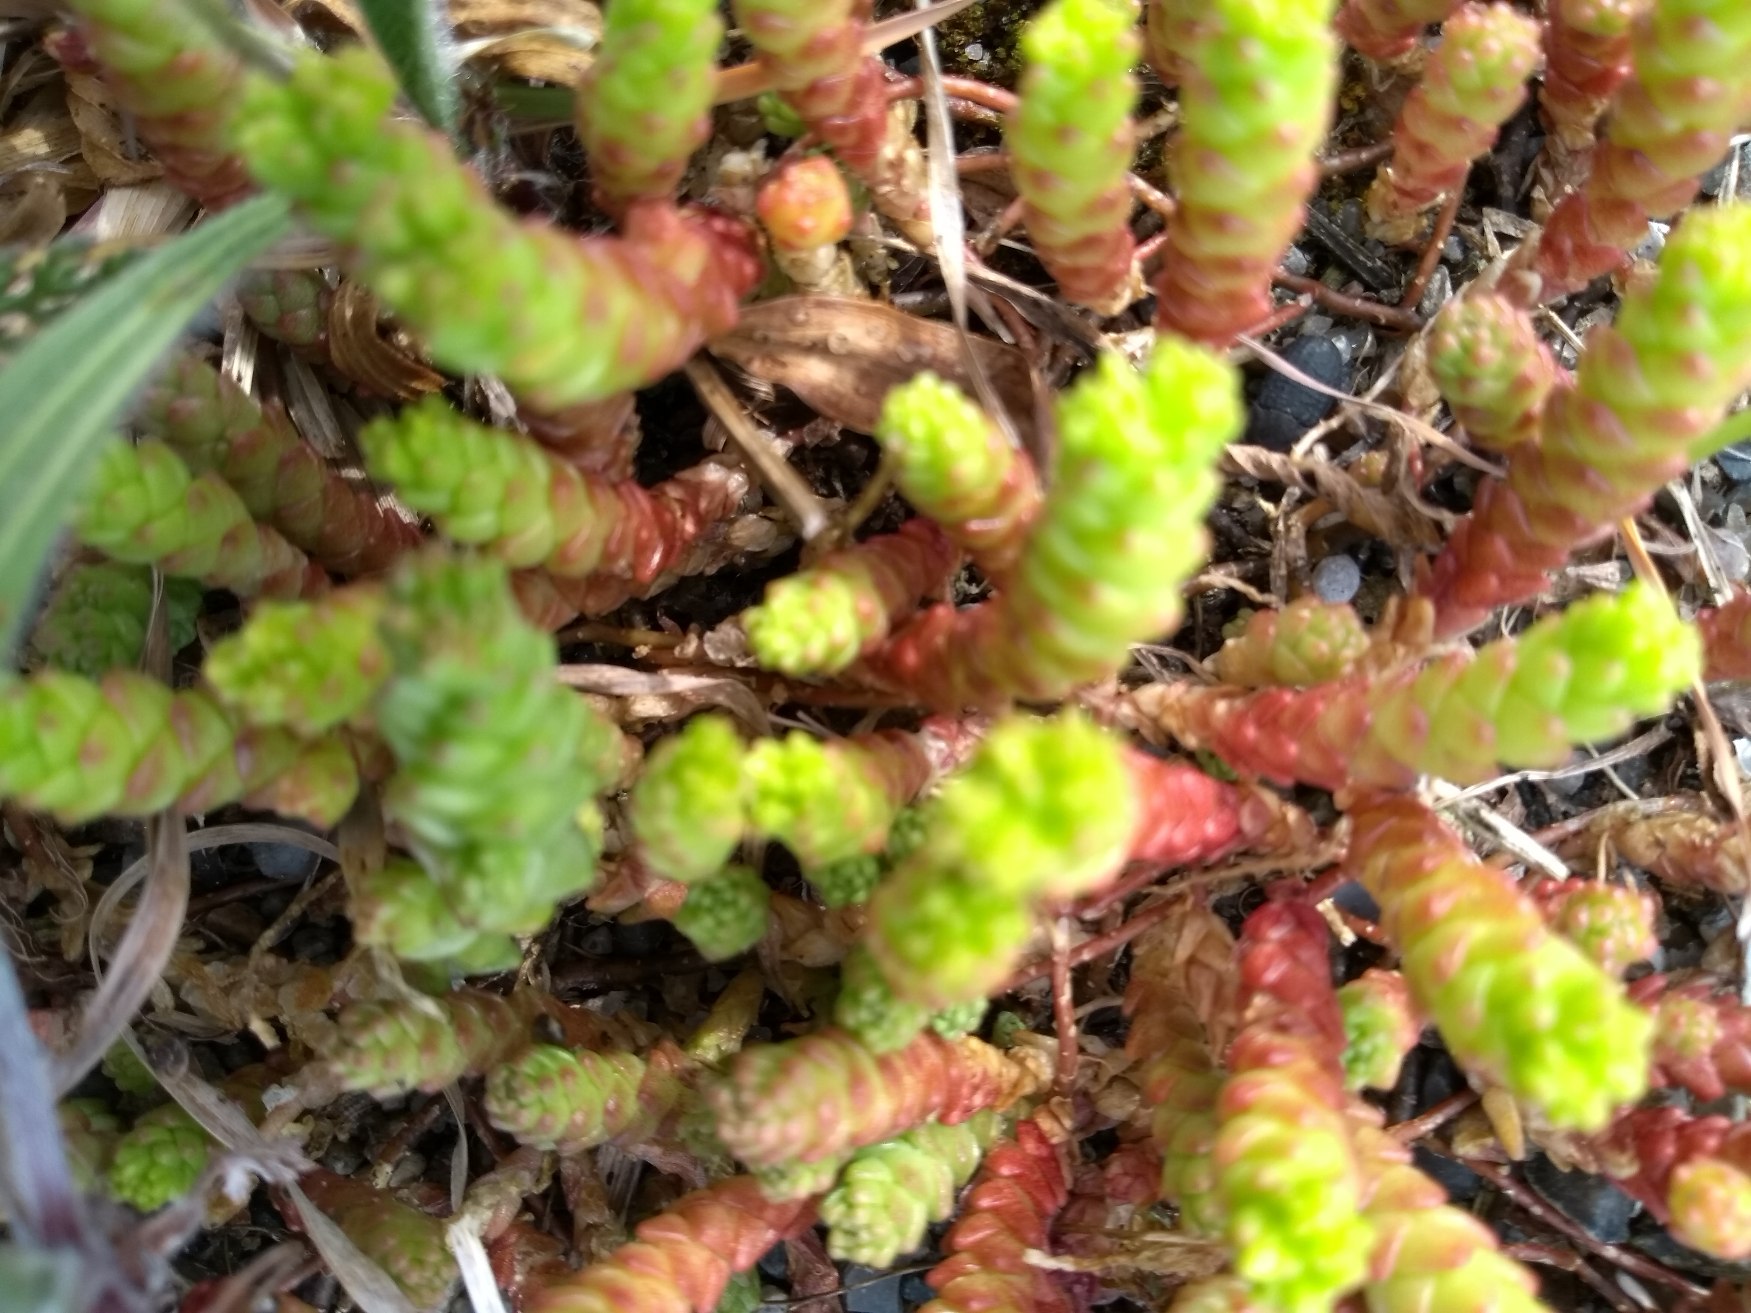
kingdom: Plantae
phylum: Tracheophyta
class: Magnoliopsida
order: Saxifragales
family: Crassulaceae
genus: Sedum
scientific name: Sedum acre
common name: Bidende stenurt
